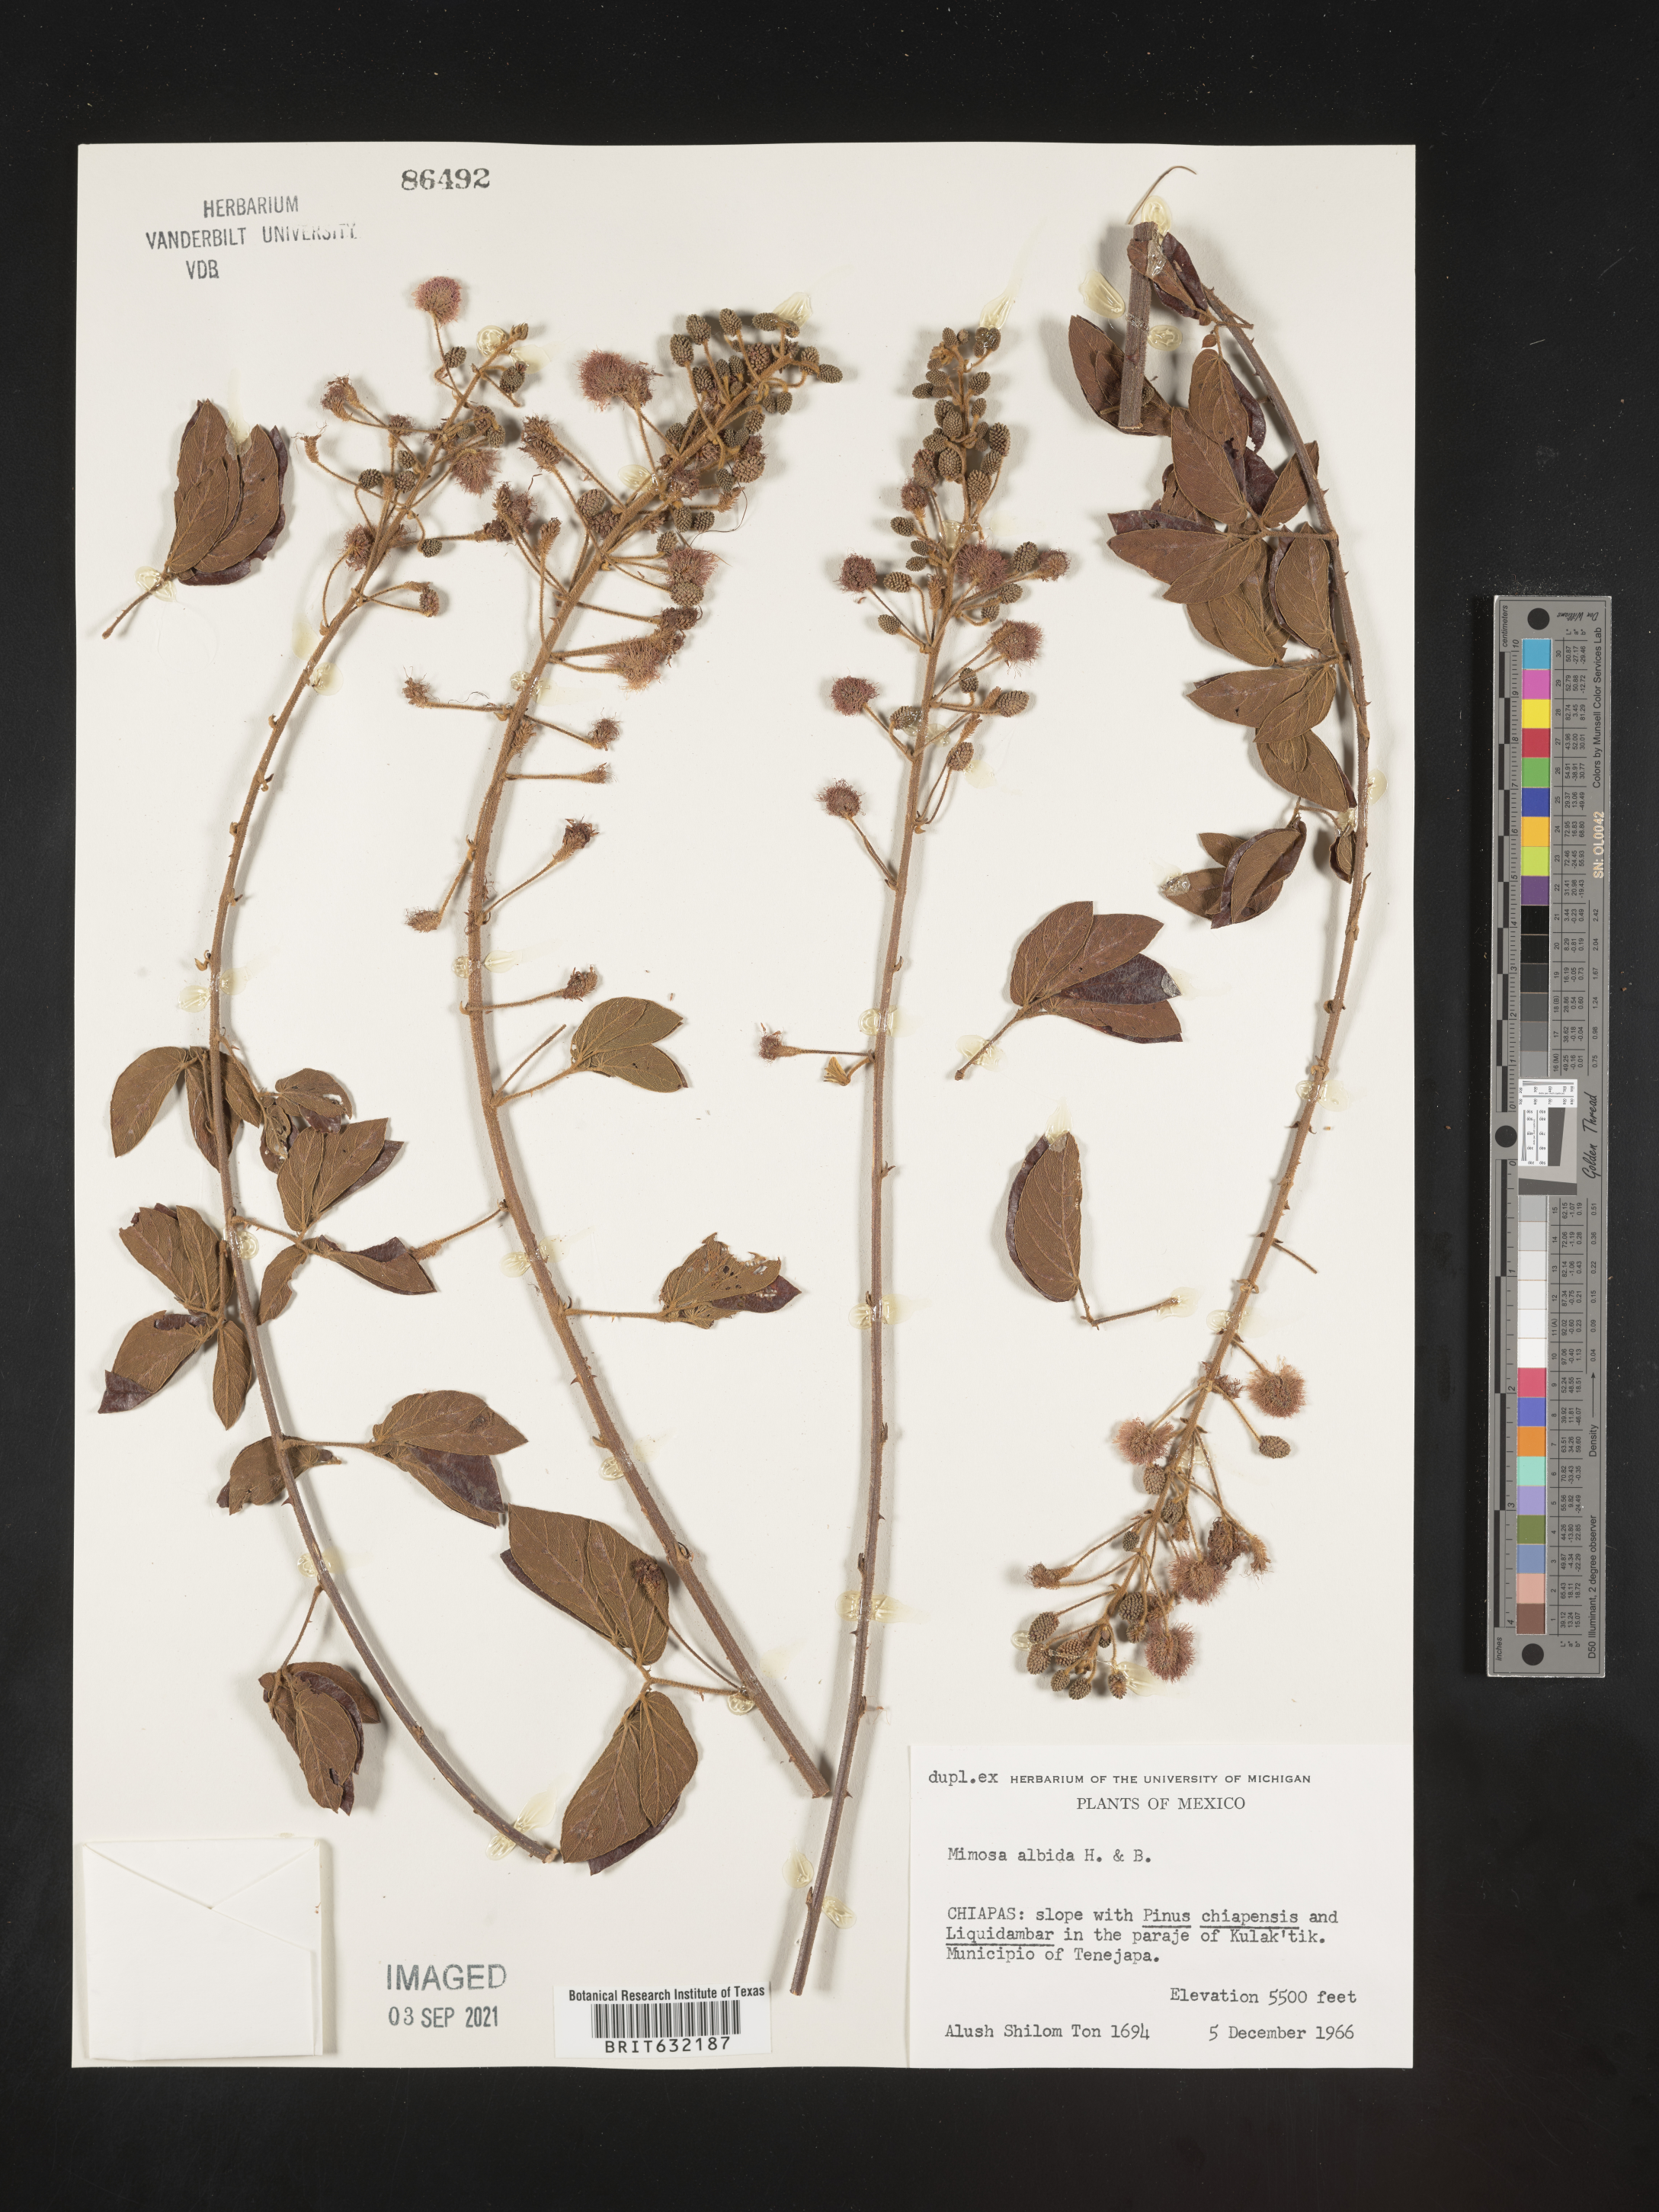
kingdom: Plantae
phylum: Tracheophyta
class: Magnoliopsida
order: Fabales
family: Fabaceae
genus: Mimosa
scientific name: Mimosa
